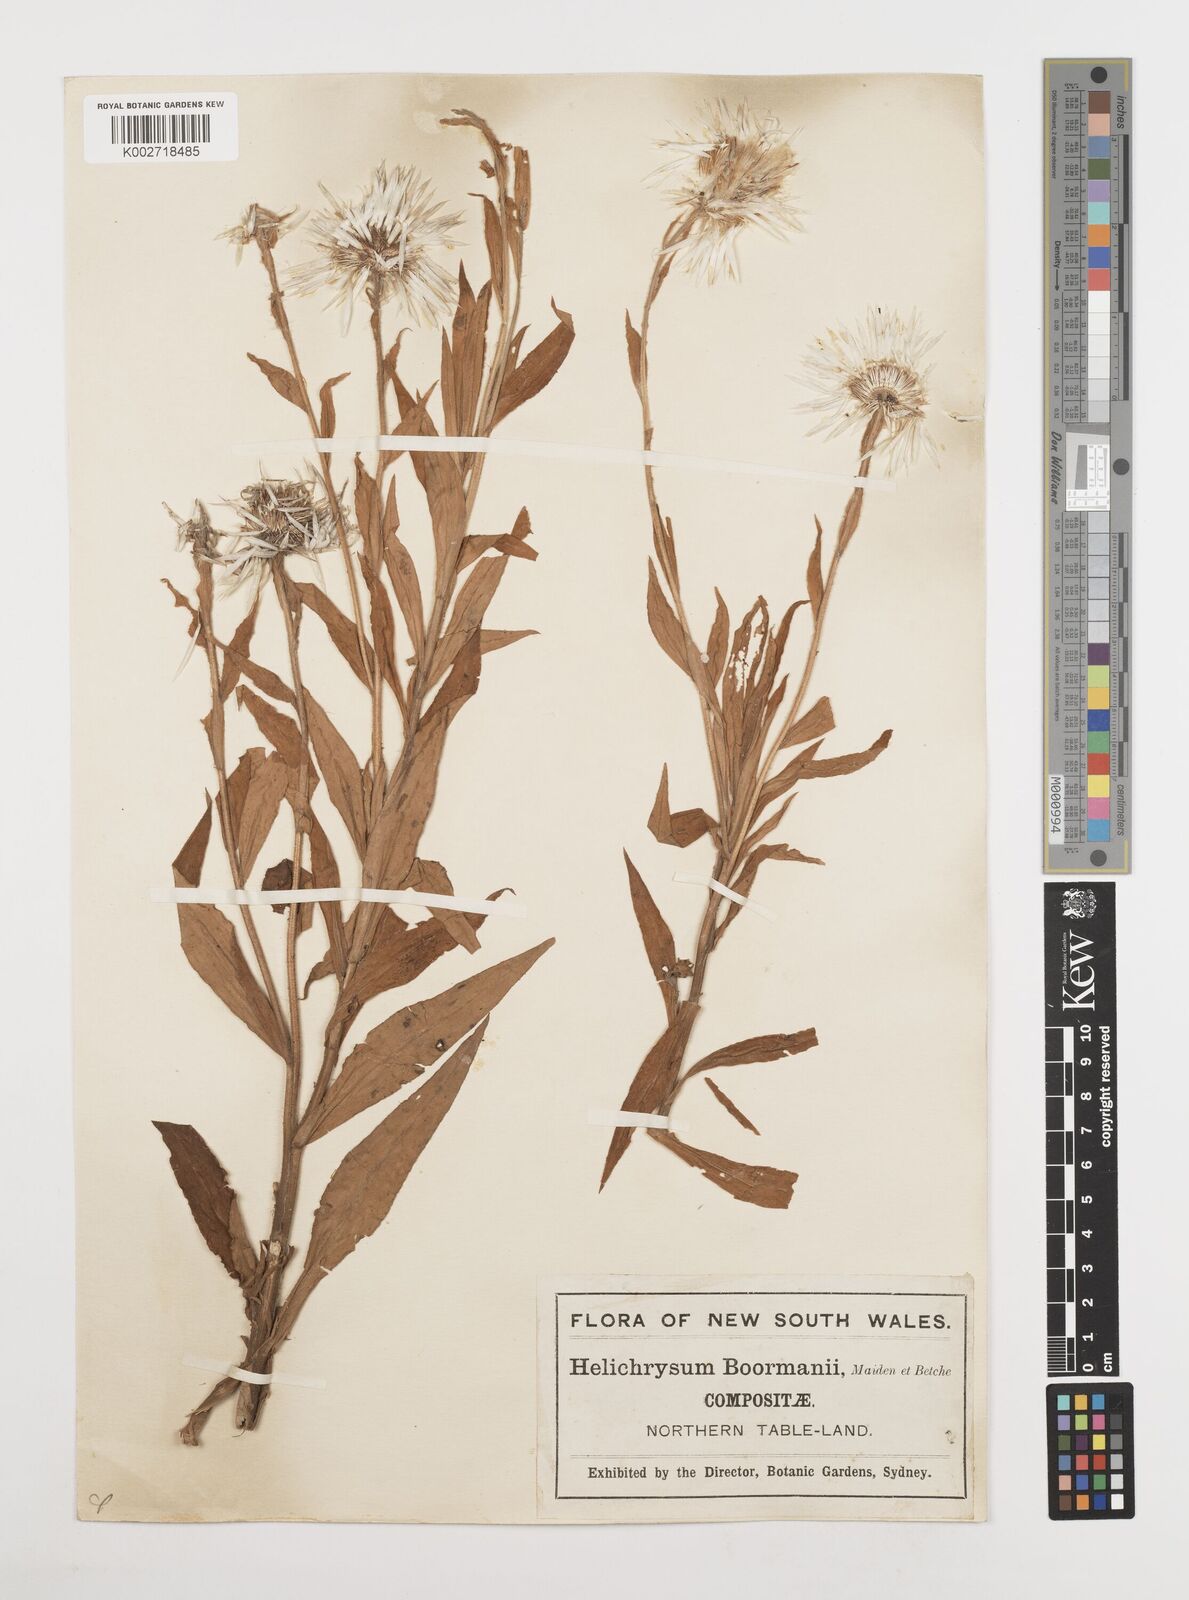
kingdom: Plantae
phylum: Tracheophyta
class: Magnoliopsida
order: Asterales
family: Asteraceae
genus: Leucozoma
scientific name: Leucozoma boormanii
